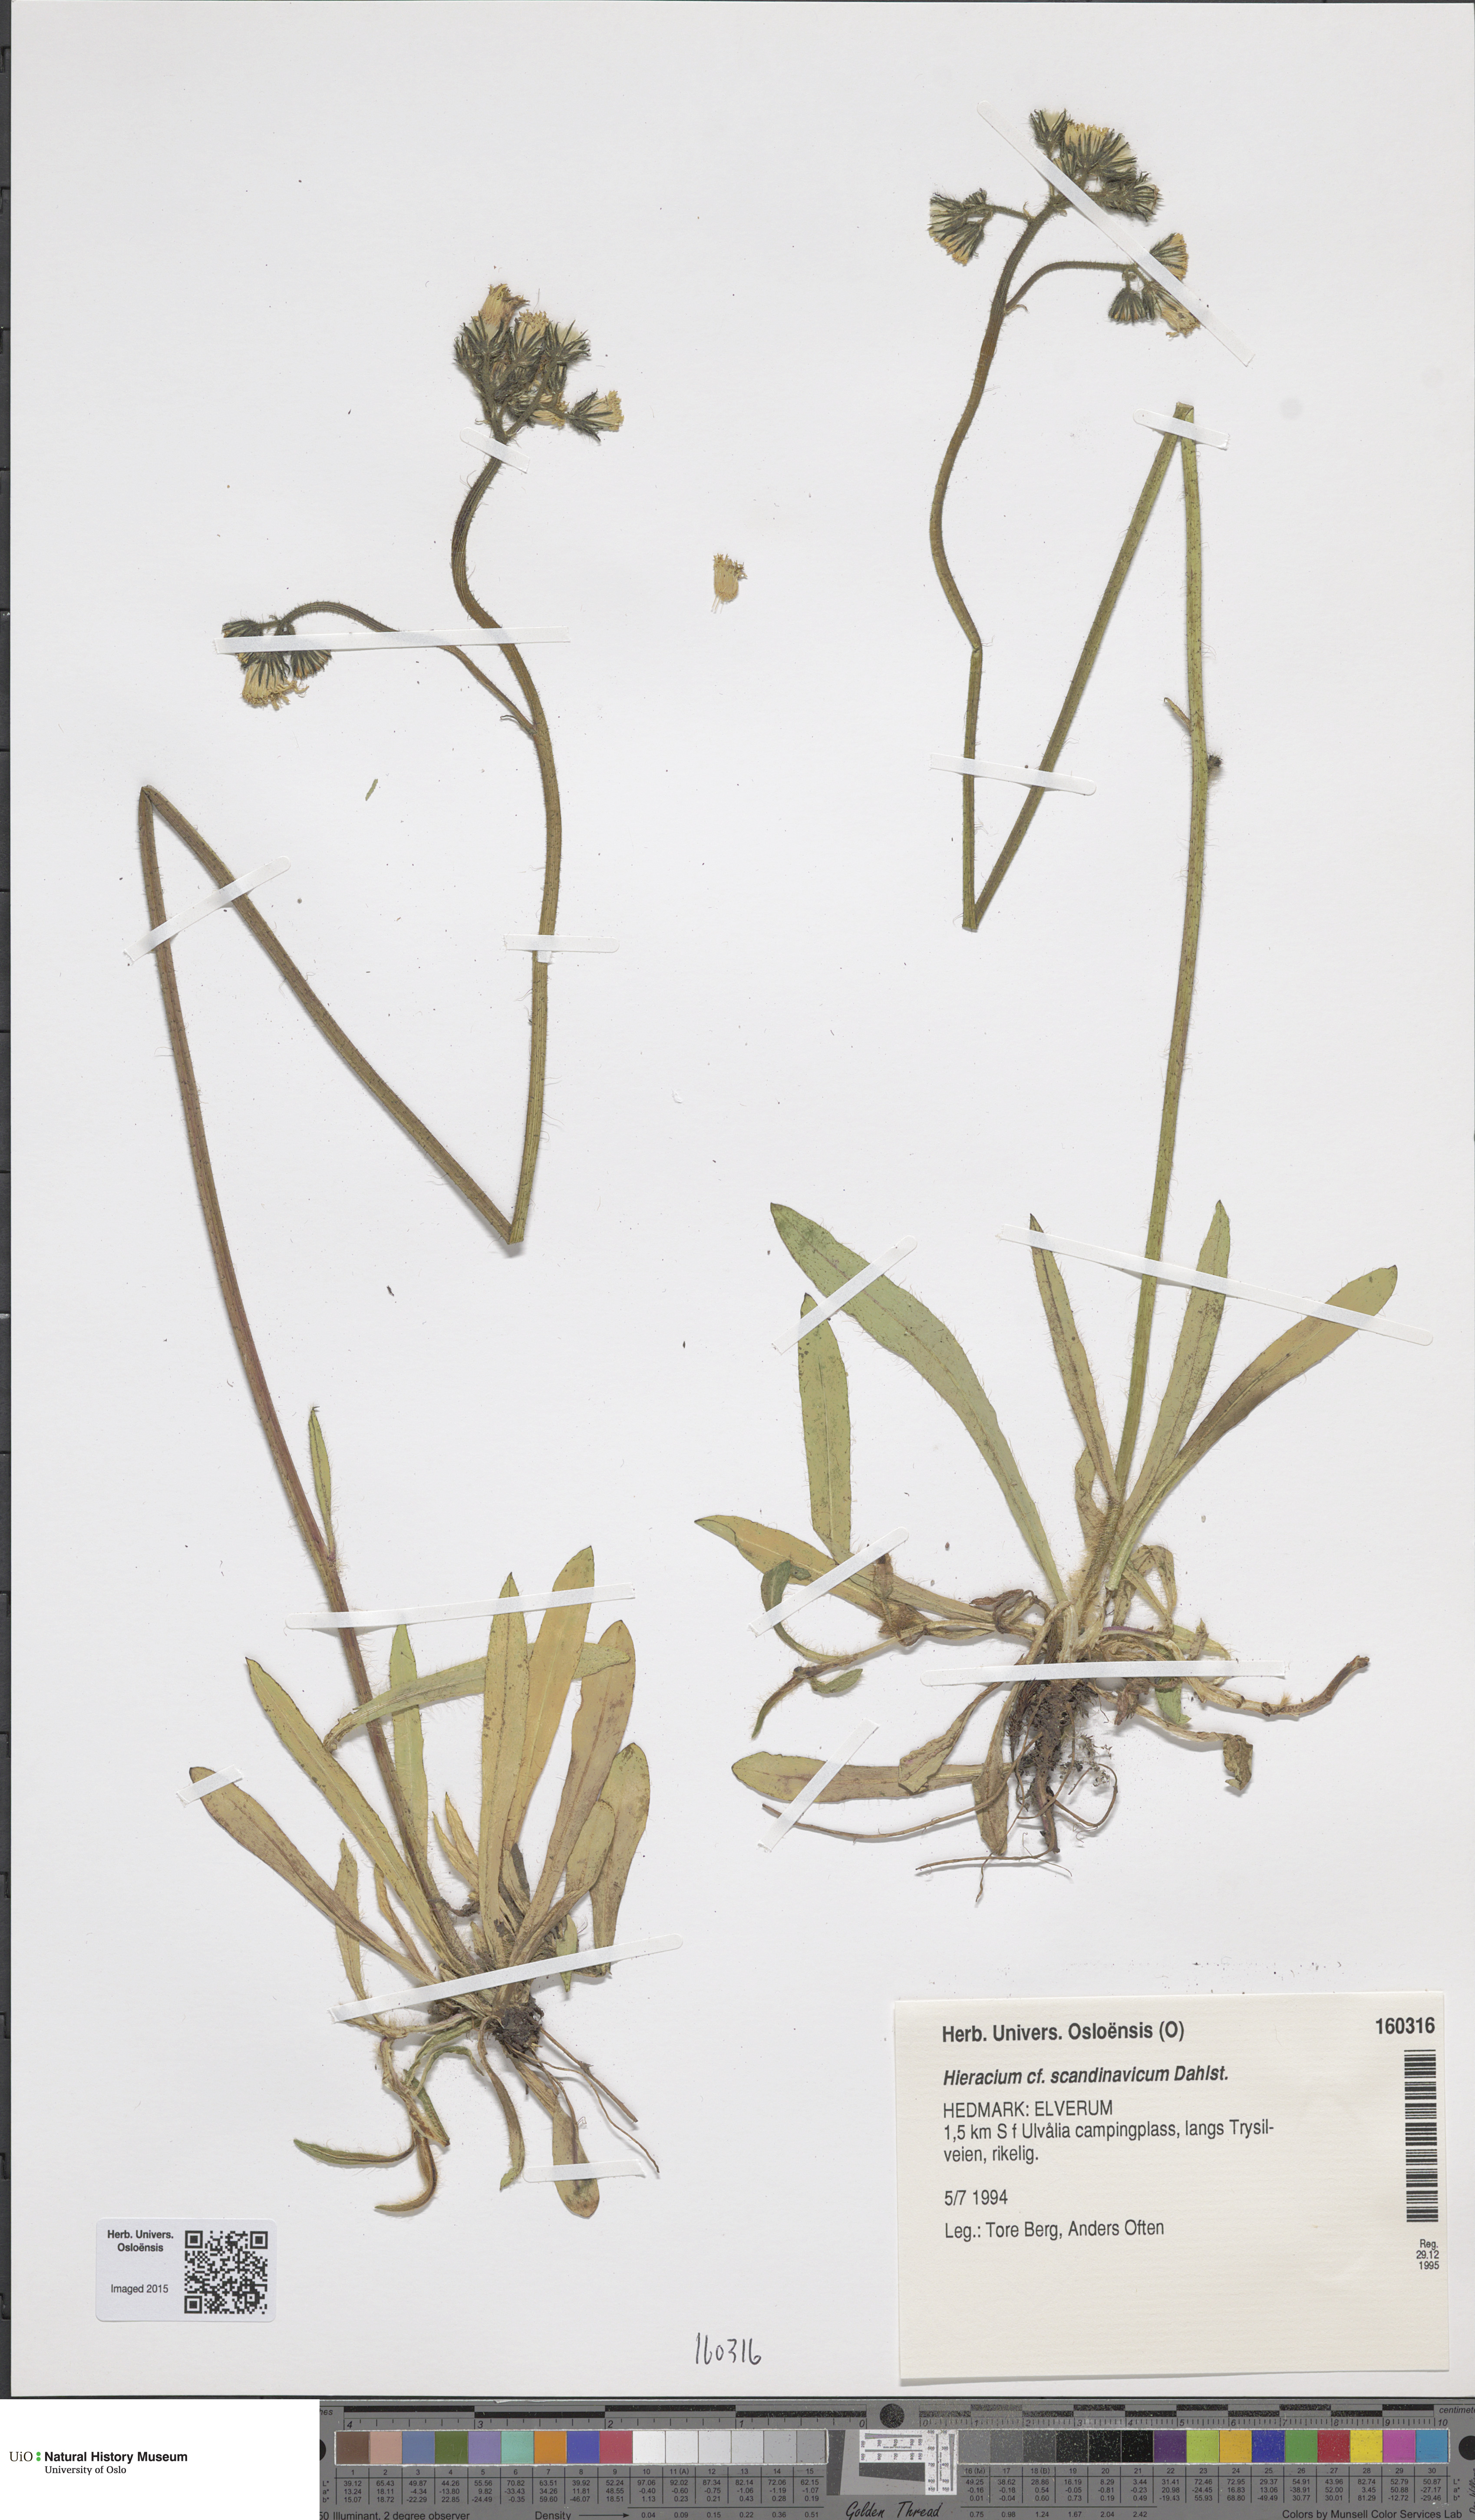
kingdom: Plantae
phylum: Tracheophyta
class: Magnoliopsida
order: Asterales
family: Asteraceae
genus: Pilosella
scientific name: Pilosella scandinavica
